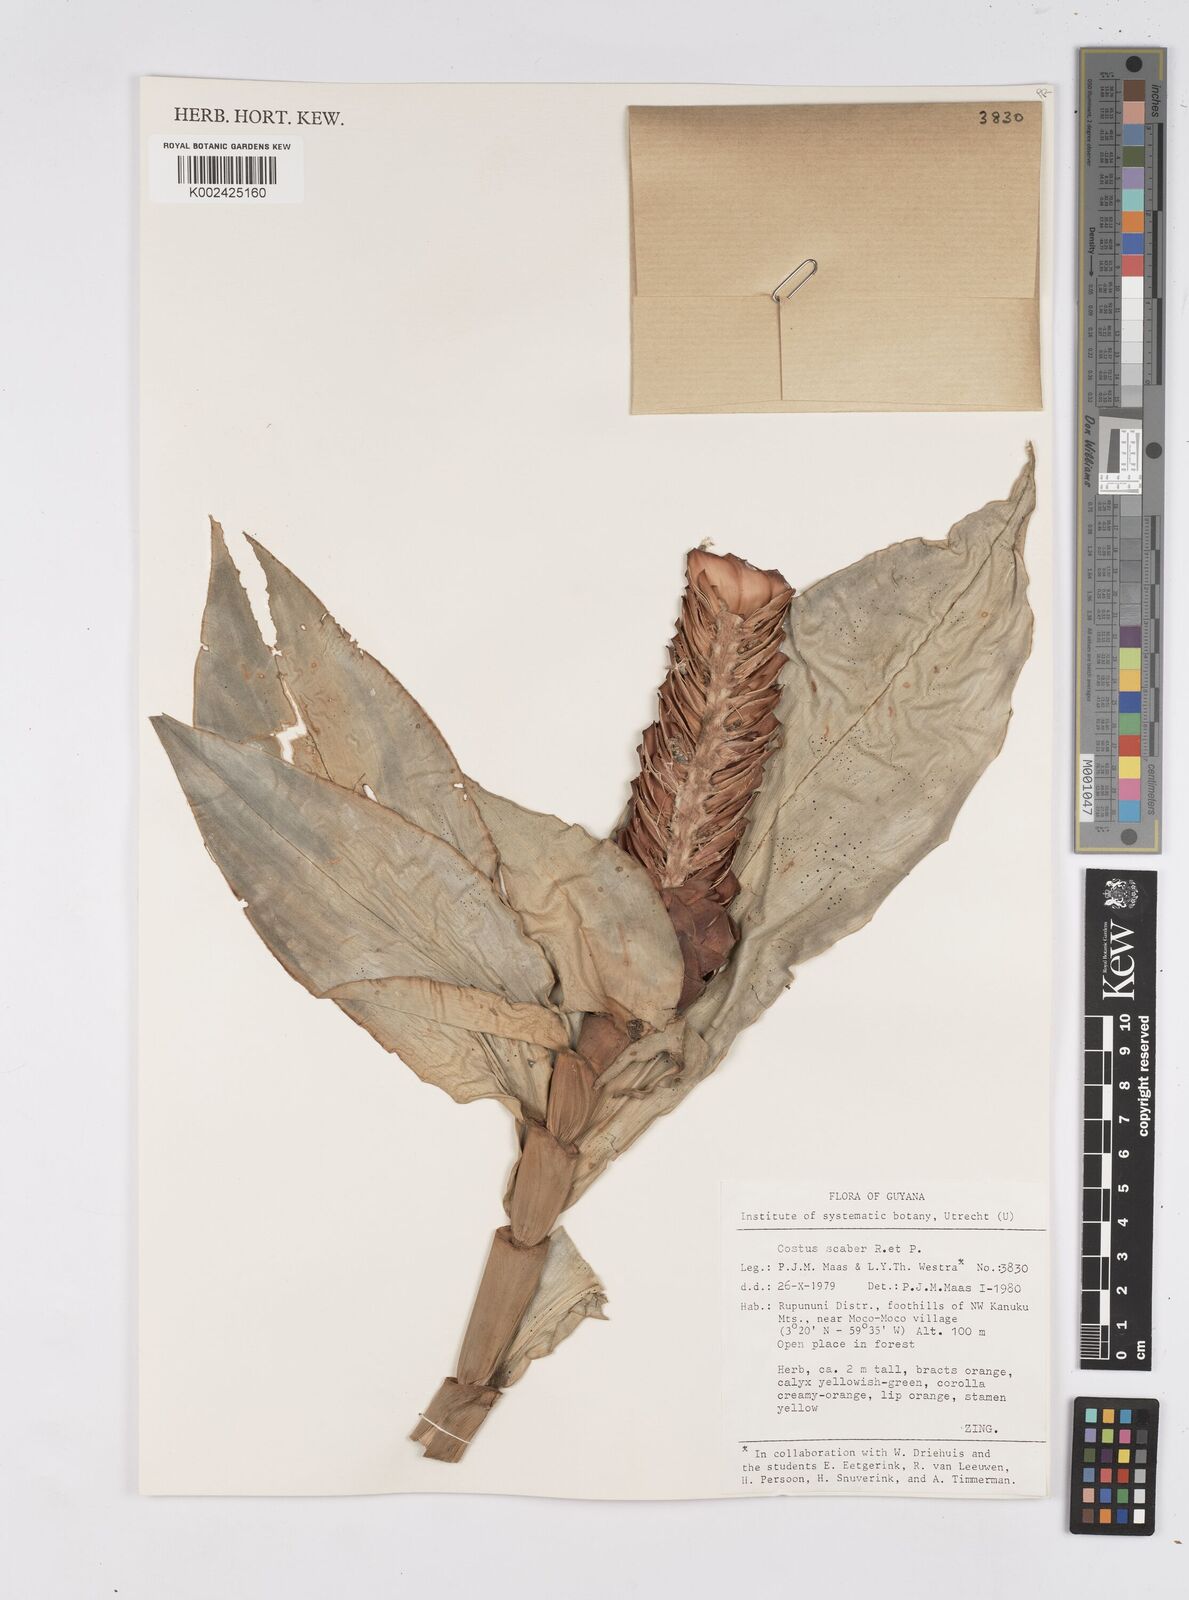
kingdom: Plantae
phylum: Tracheophyta
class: Liliopsida
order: Zingiberales
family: Costaceae
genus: Costus
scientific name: Costus scaber
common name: Spiral head ginger
